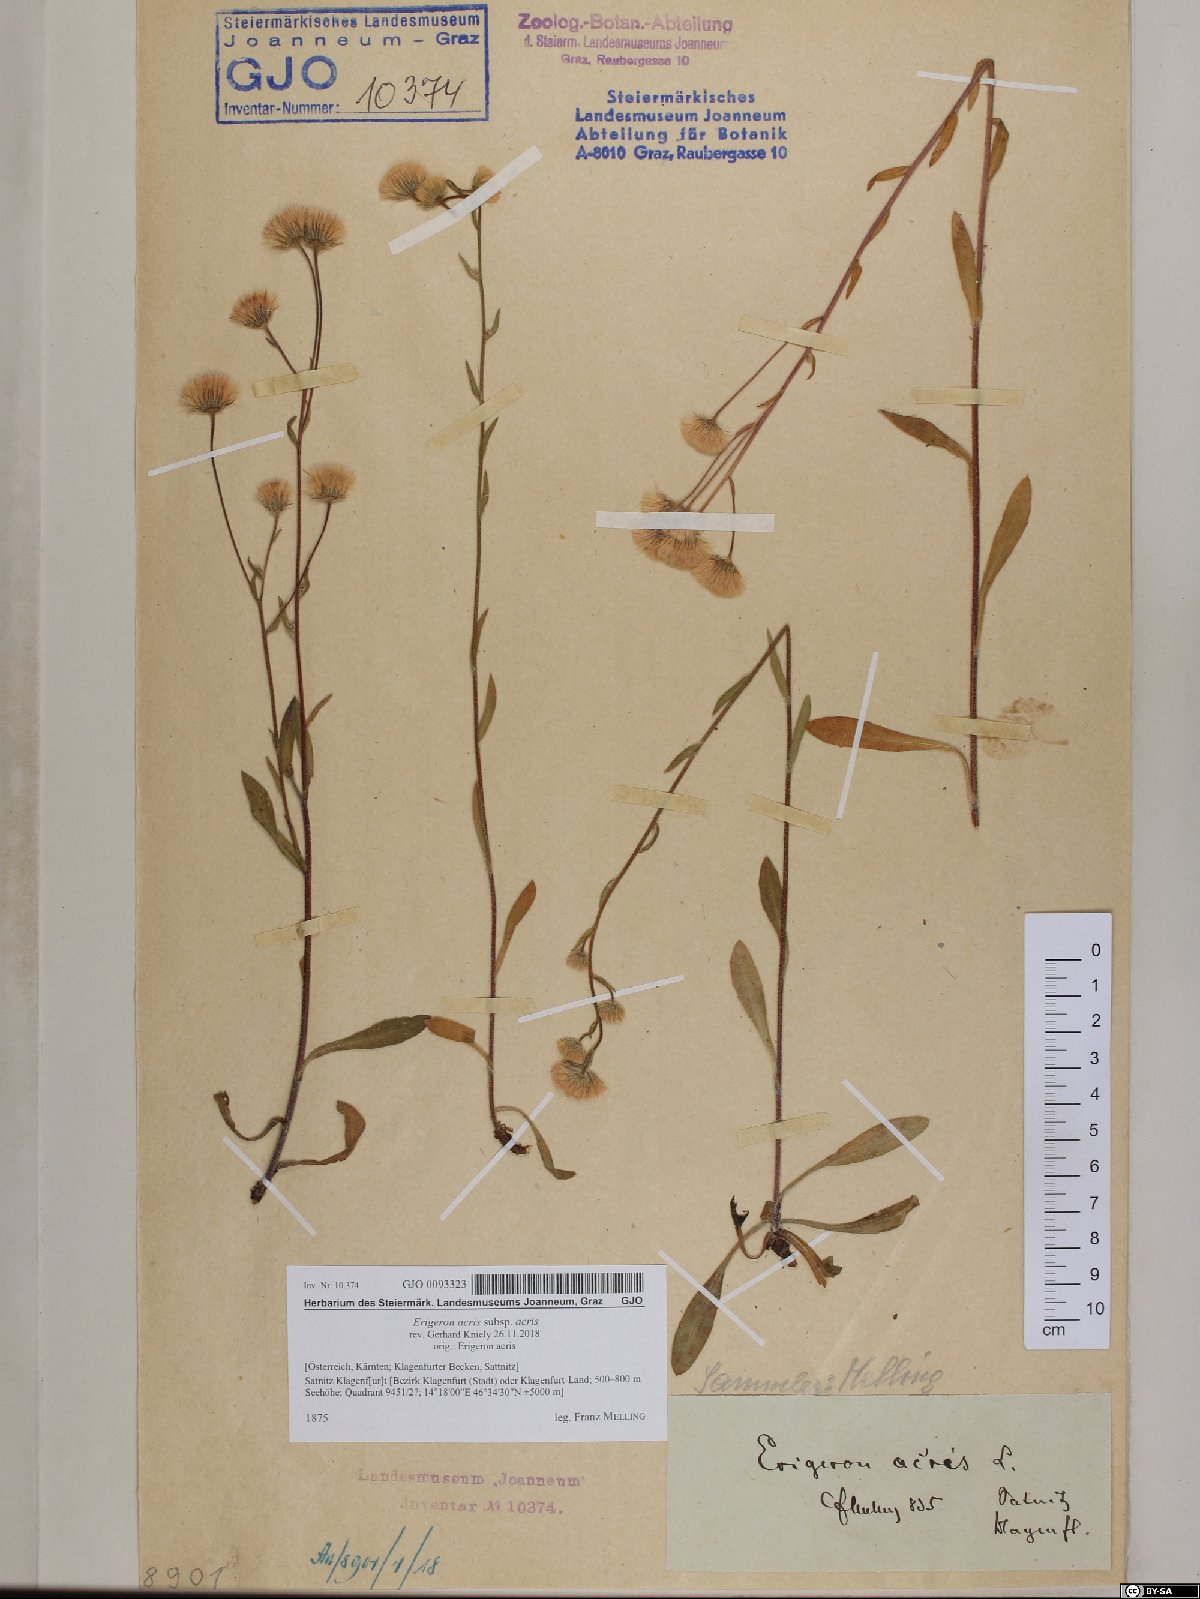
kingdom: Plantae
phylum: Tracheophyta
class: Magnoliopsida
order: Asterales
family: Asteraceae
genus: Erigeron
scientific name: Erigeron acris
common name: Blue fleabane
